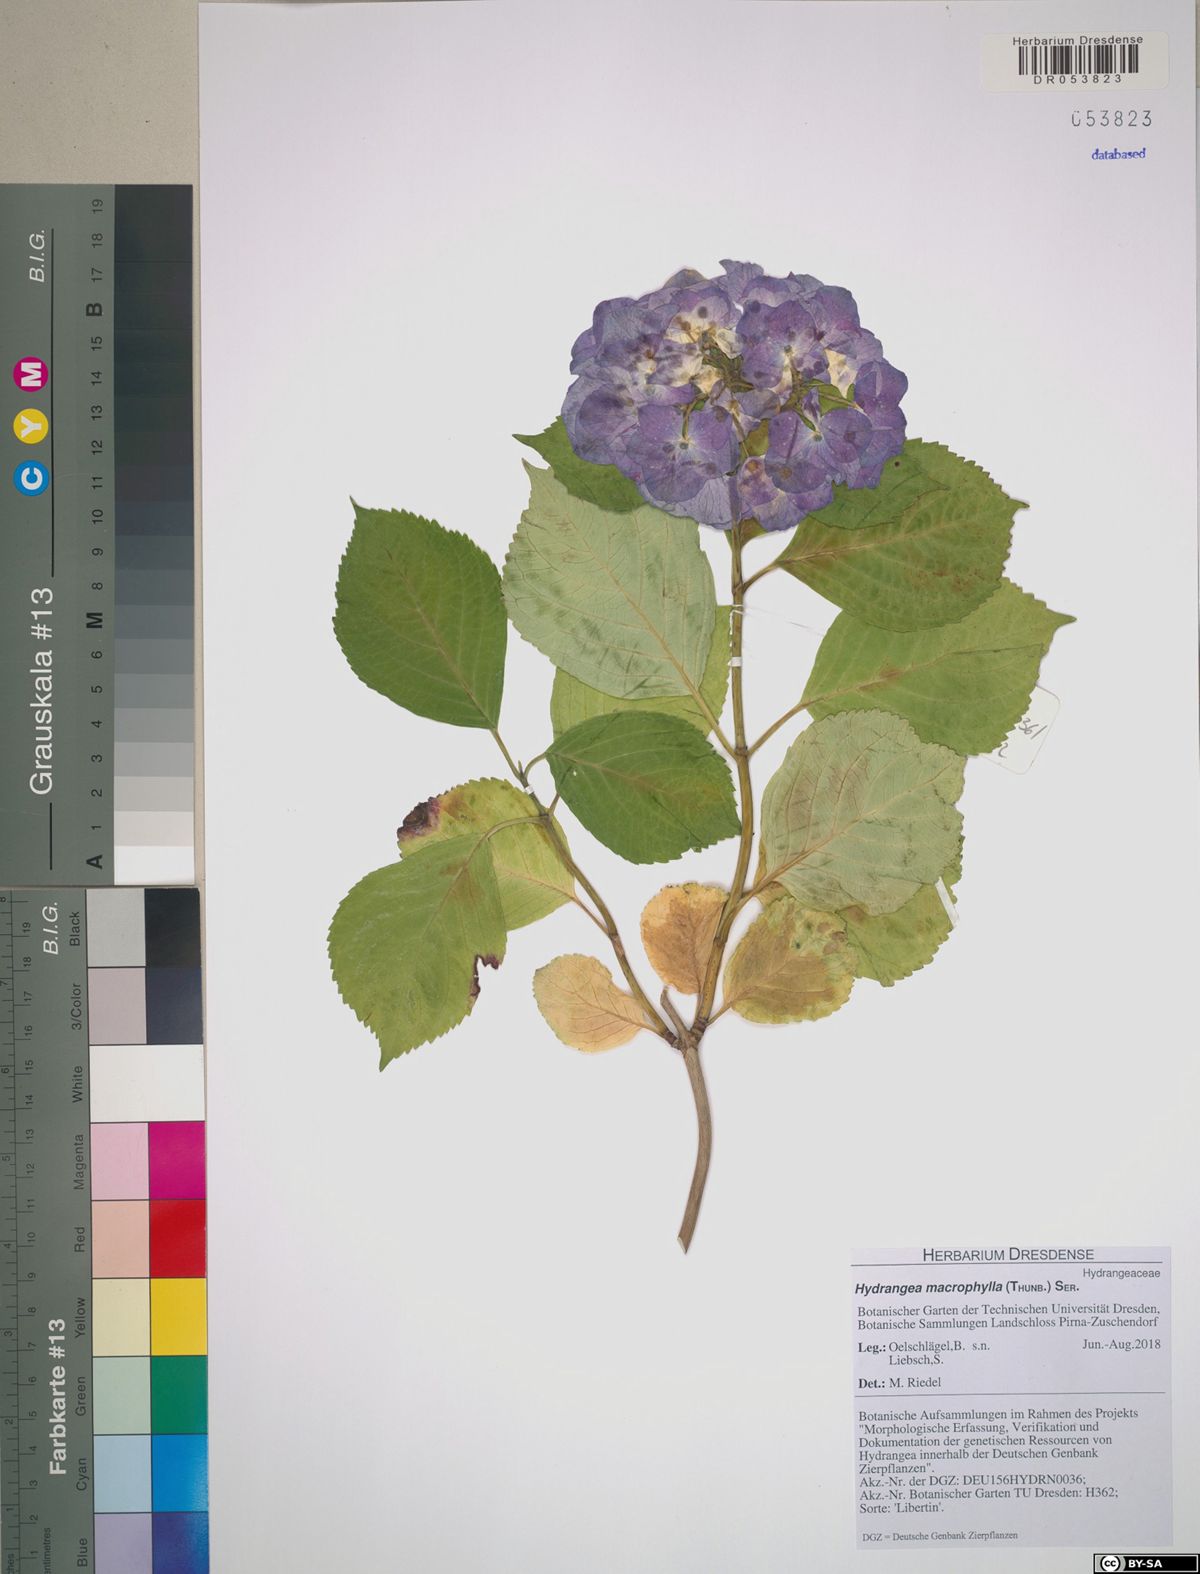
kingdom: Plantae
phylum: Tracheophyta
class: Magnoliopsida
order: Cornales
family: Hydrangeaceae
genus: Hydrangea
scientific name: Hydrangea macrophylla
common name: Hydrangea
